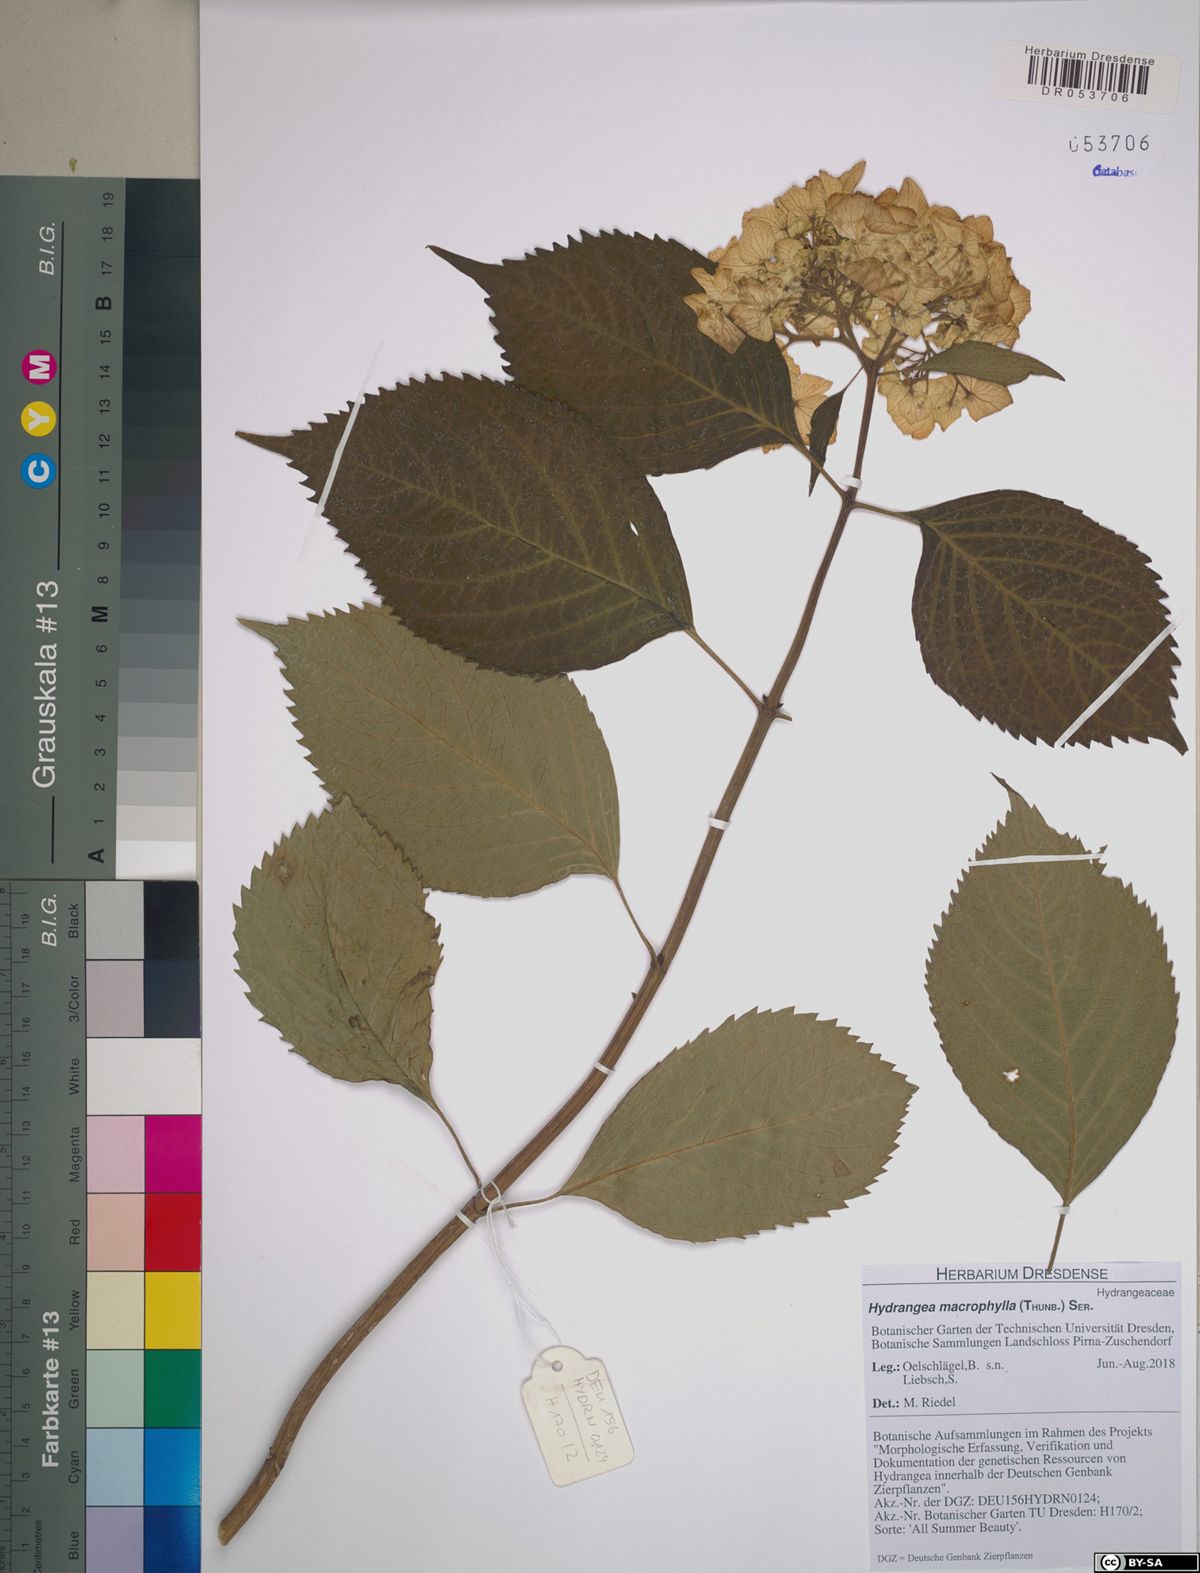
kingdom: Plantae
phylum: Tracheophyta
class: Magnoliopsida
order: Cornales
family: Hydrangeaceae
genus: Hydrangea
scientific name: Hydrangea macrophylla
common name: Hydrangea
